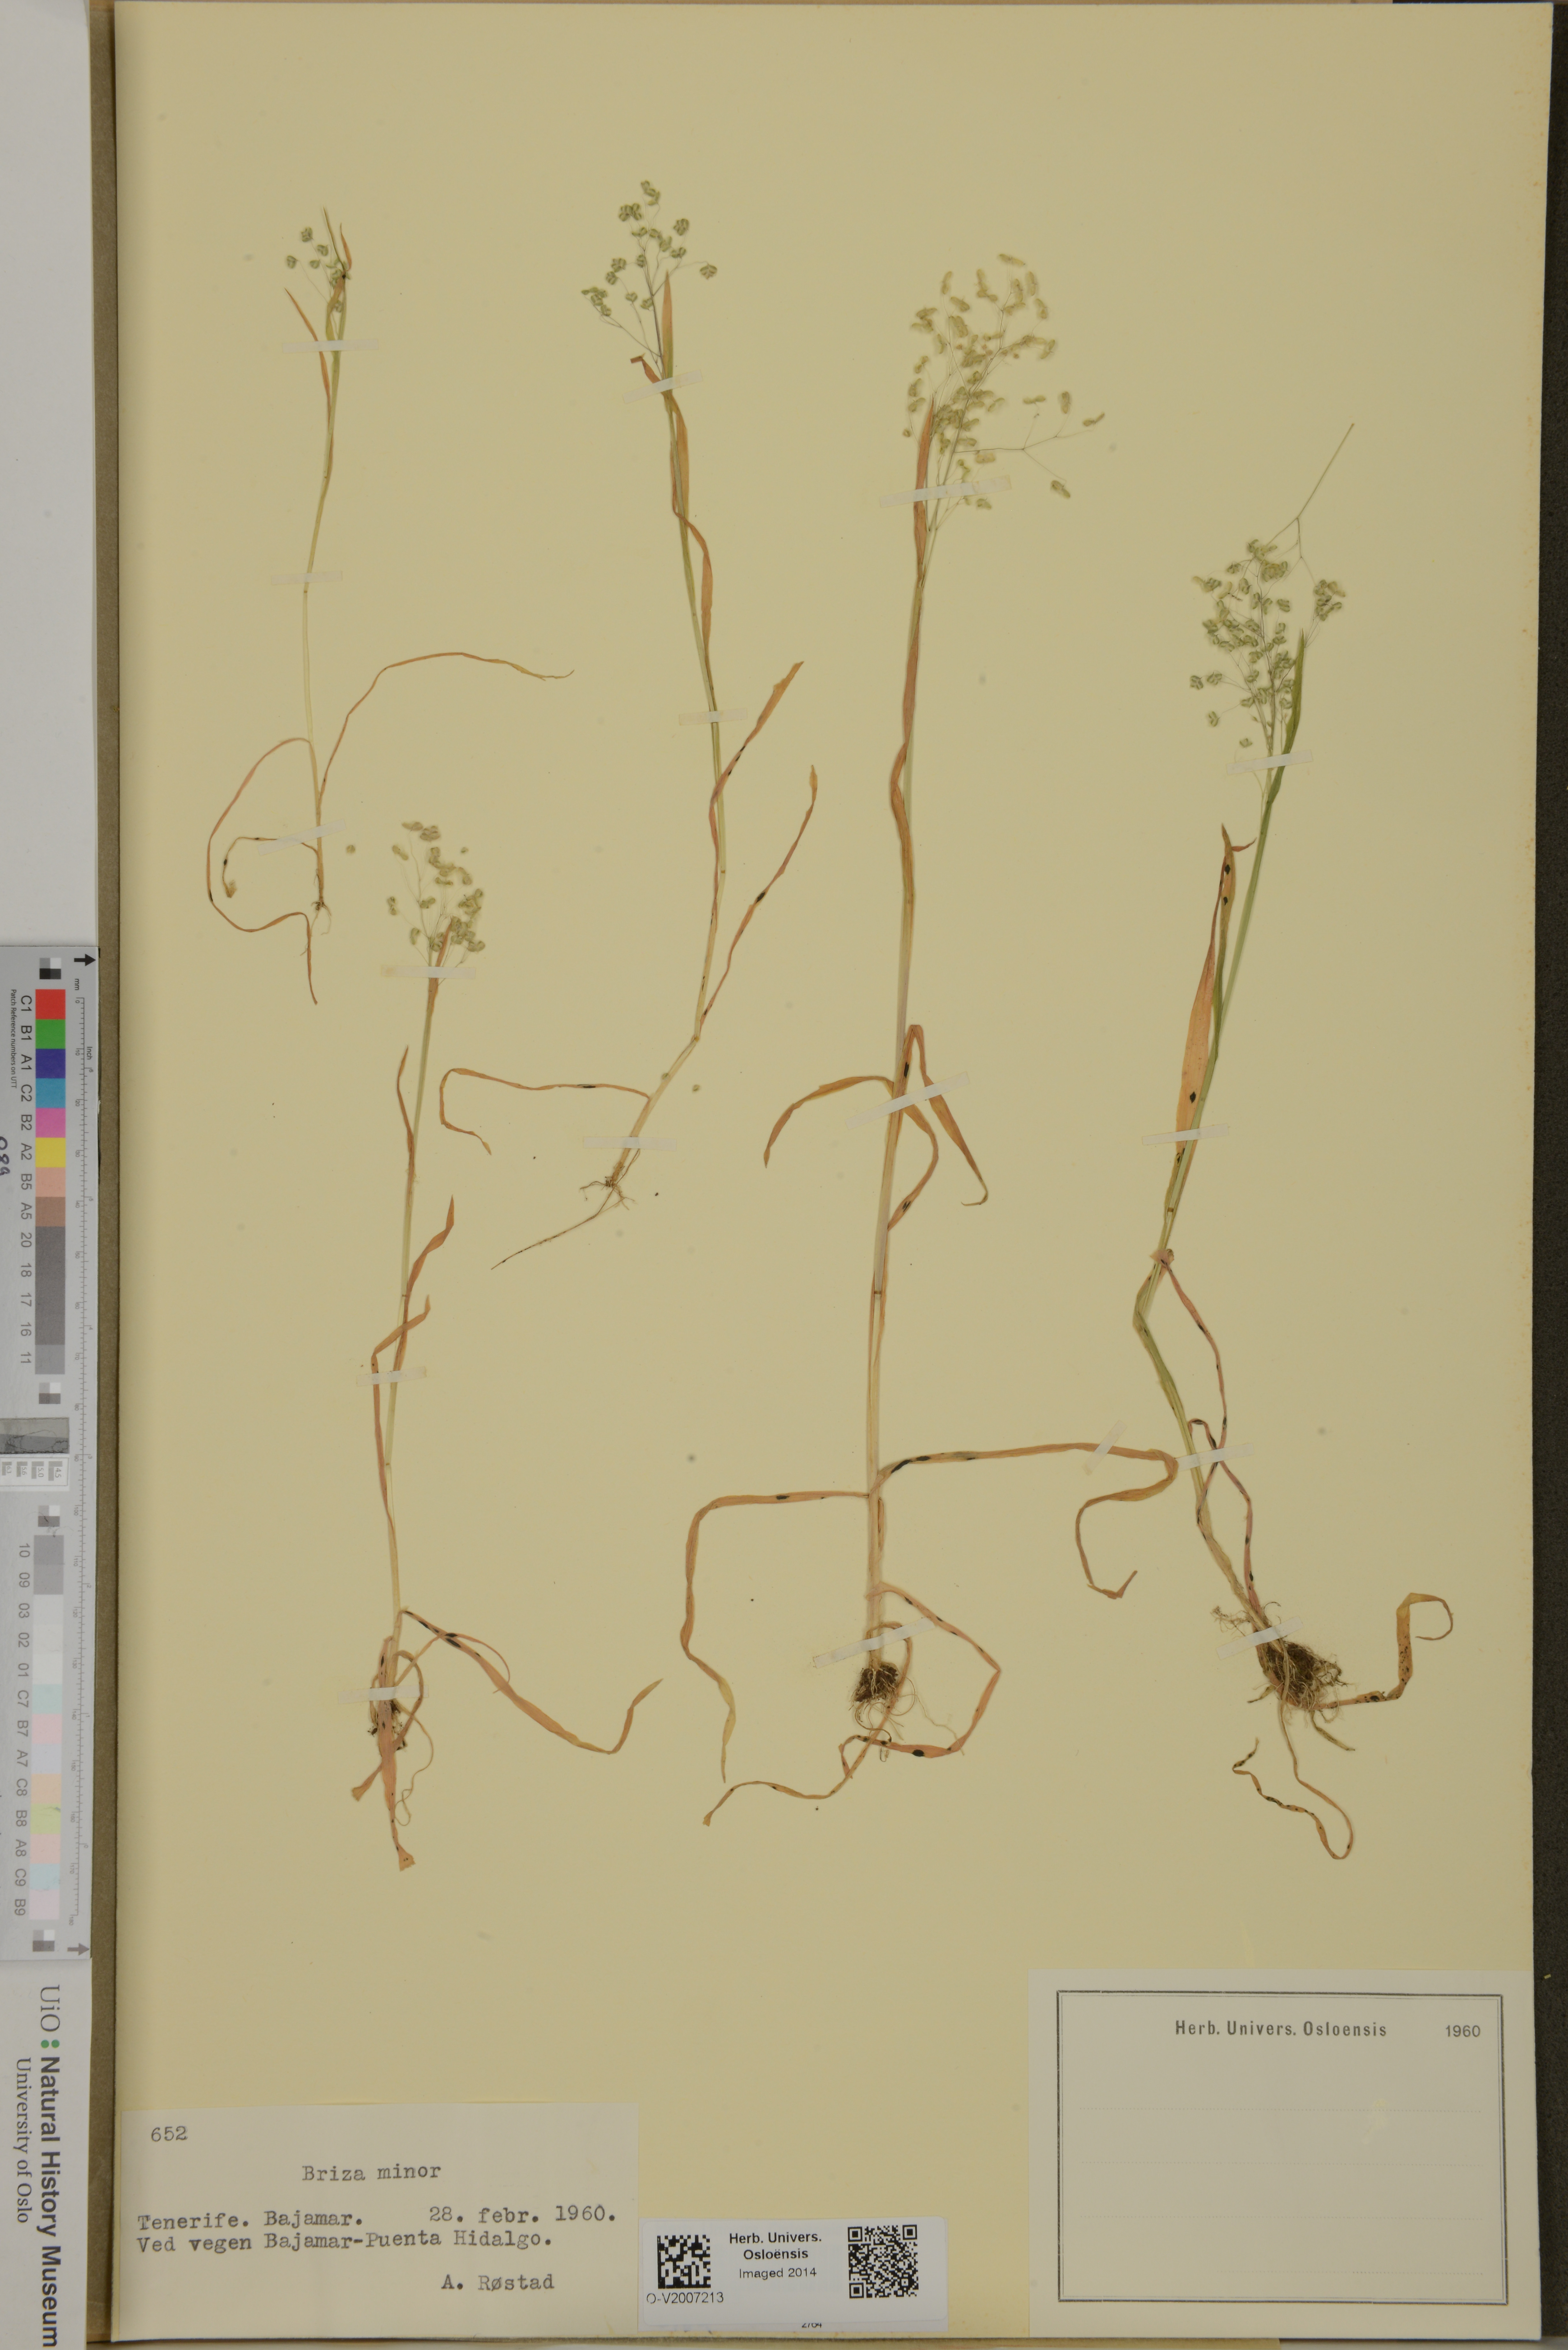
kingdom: Plantae
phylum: Tracheophyta
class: Liliopsida
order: Poales
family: Poaceae
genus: Briza
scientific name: Briza minor
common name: Lesser quaking-grass
